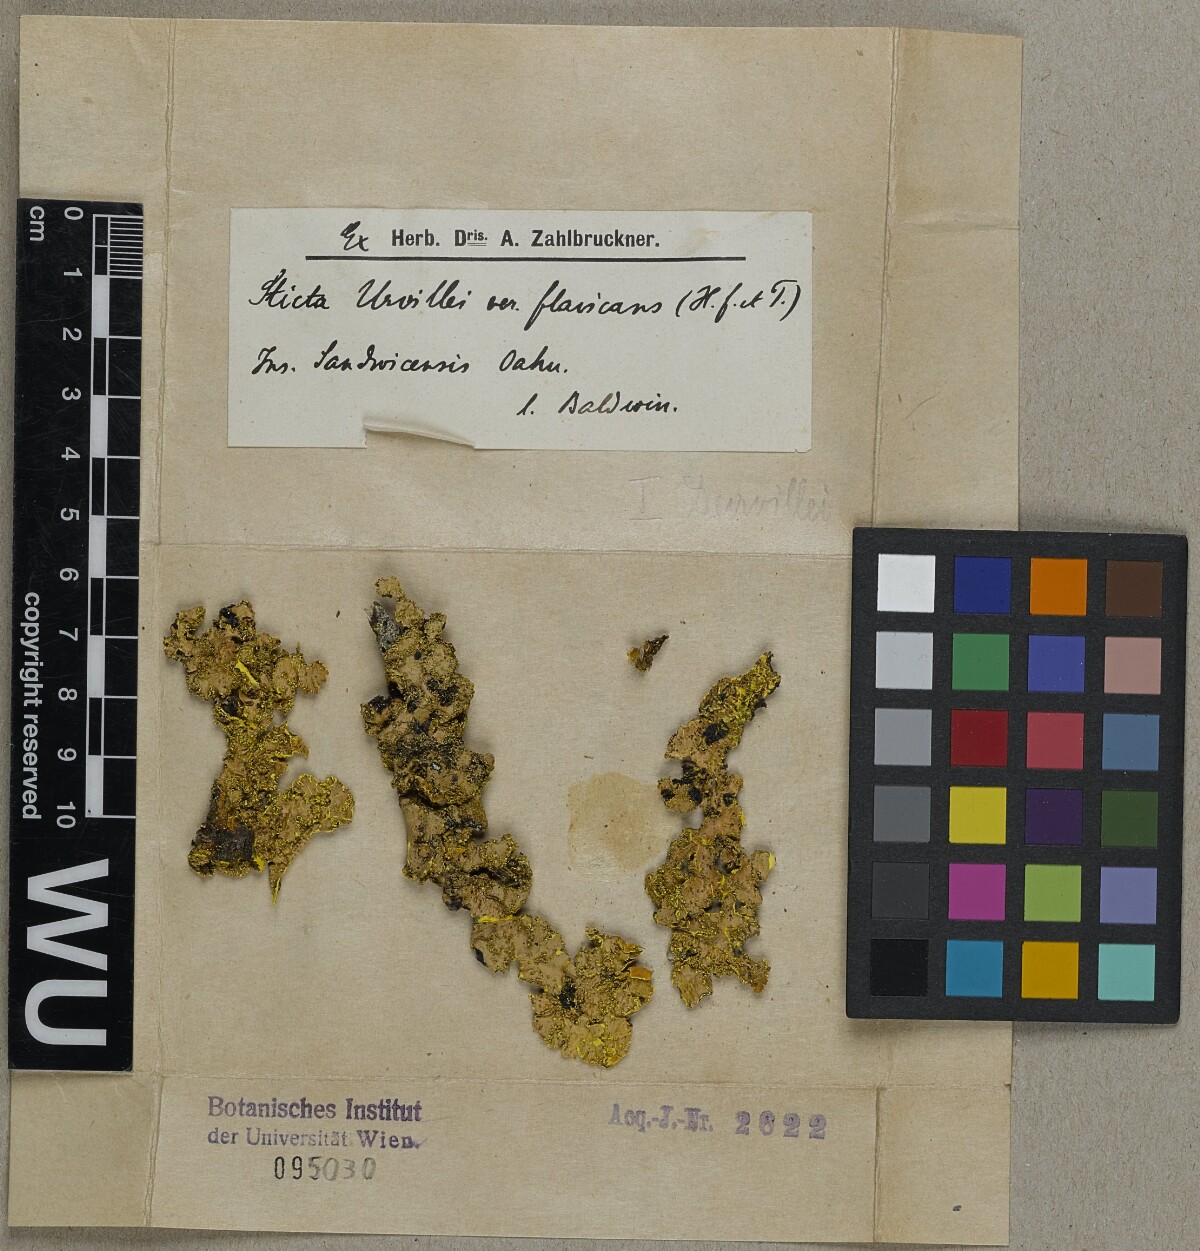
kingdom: Fungi
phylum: Ascomycota
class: Lecanoromycetes
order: Peltigerales
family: Lobariaceae
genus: Yarrumia
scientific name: Yarrumia coronata
